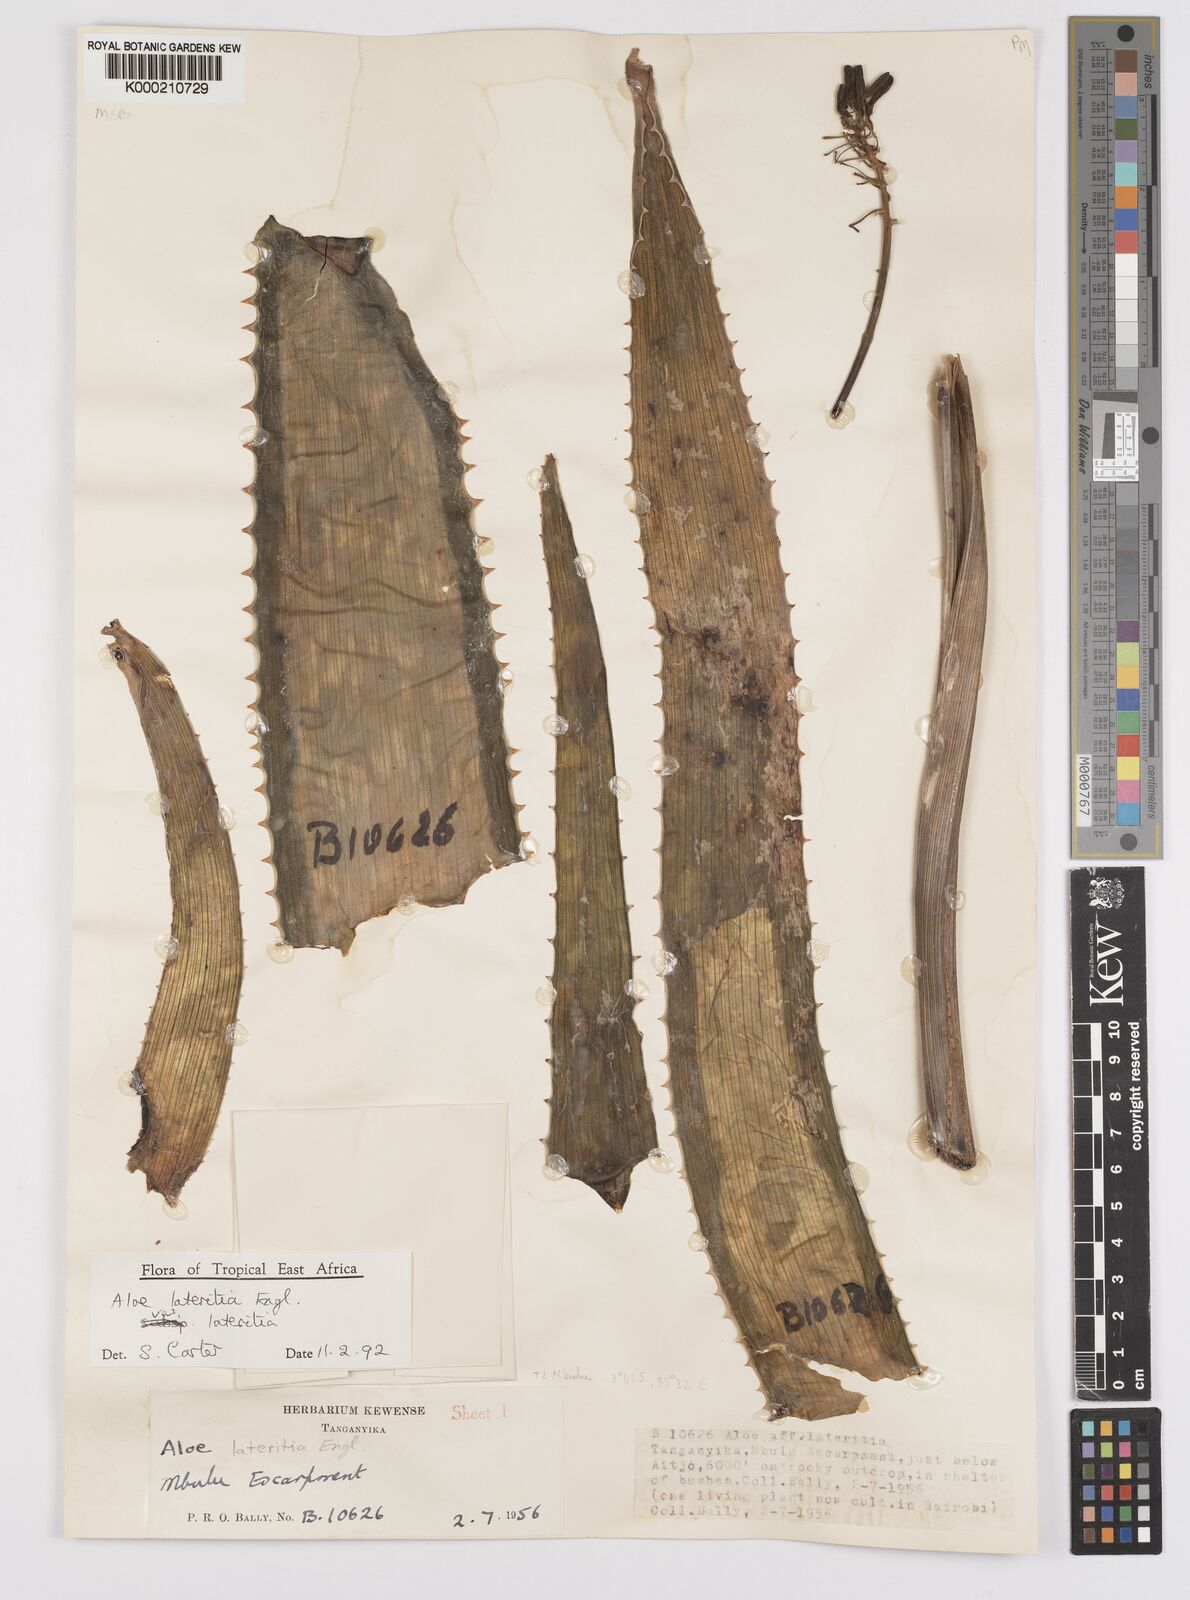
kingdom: Plantae
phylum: Tracheophyta
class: Liliopsida
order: Asparagales
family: Asphodelaceae
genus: Aloe
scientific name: Aloe lateritia
